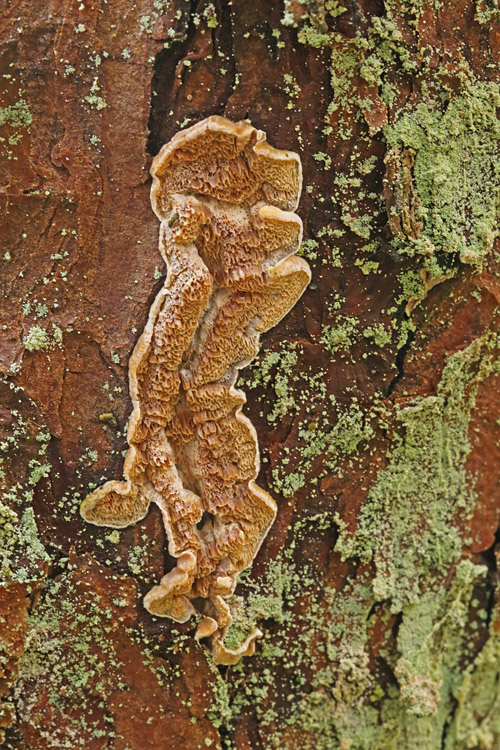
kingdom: Fungi
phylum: Basidiomycota
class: Agaricomycetes
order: Hymenochaetales
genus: Trichaptum
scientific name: Trichaptum fuscoviolaceum
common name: tandet violporesvamp
